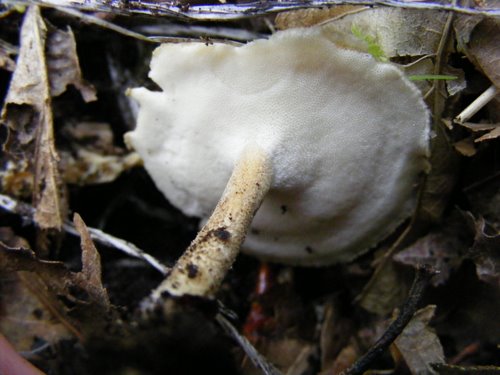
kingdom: Fungi
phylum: Basidiomycota
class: Agaricomycetes
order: Polyporales
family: Polyporaceae
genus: Lentinus
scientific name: Lentinus substrictus
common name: forårs-stilkporesvamp
